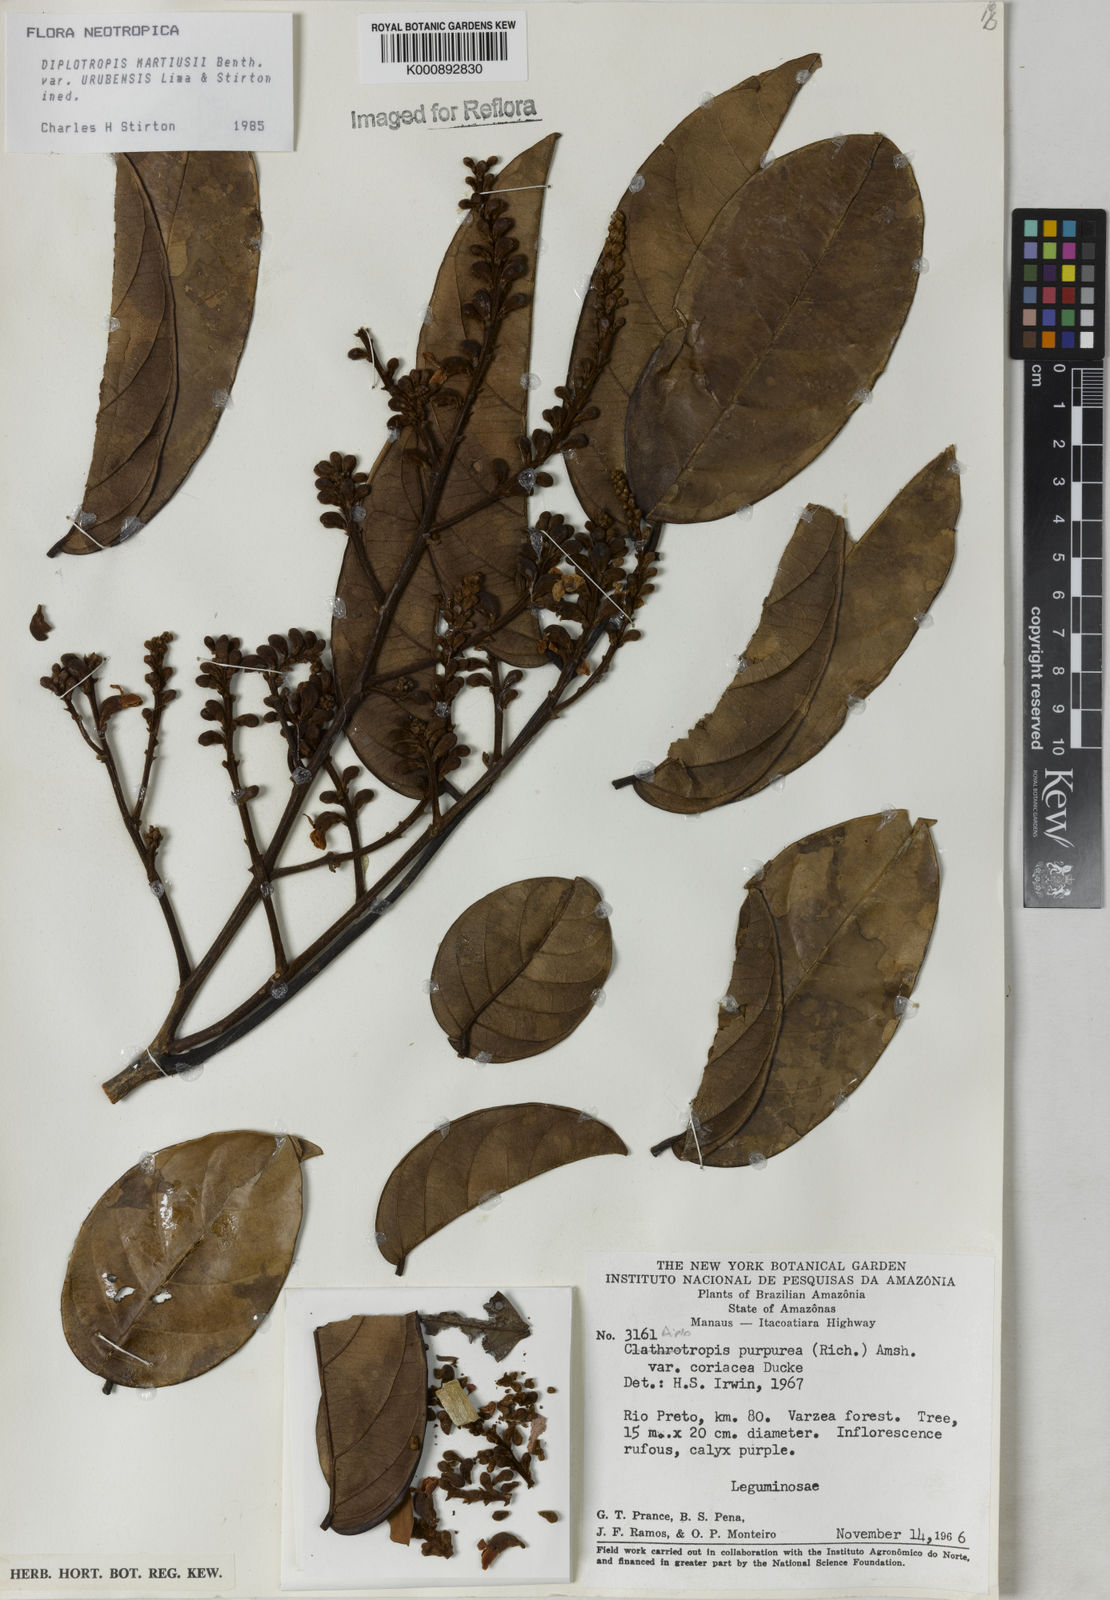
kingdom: Plantae
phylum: Tracheophyta
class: Magnoliopsida
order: Fabales
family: Fabaceae
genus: Diplotropis
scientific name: Diplotropis
